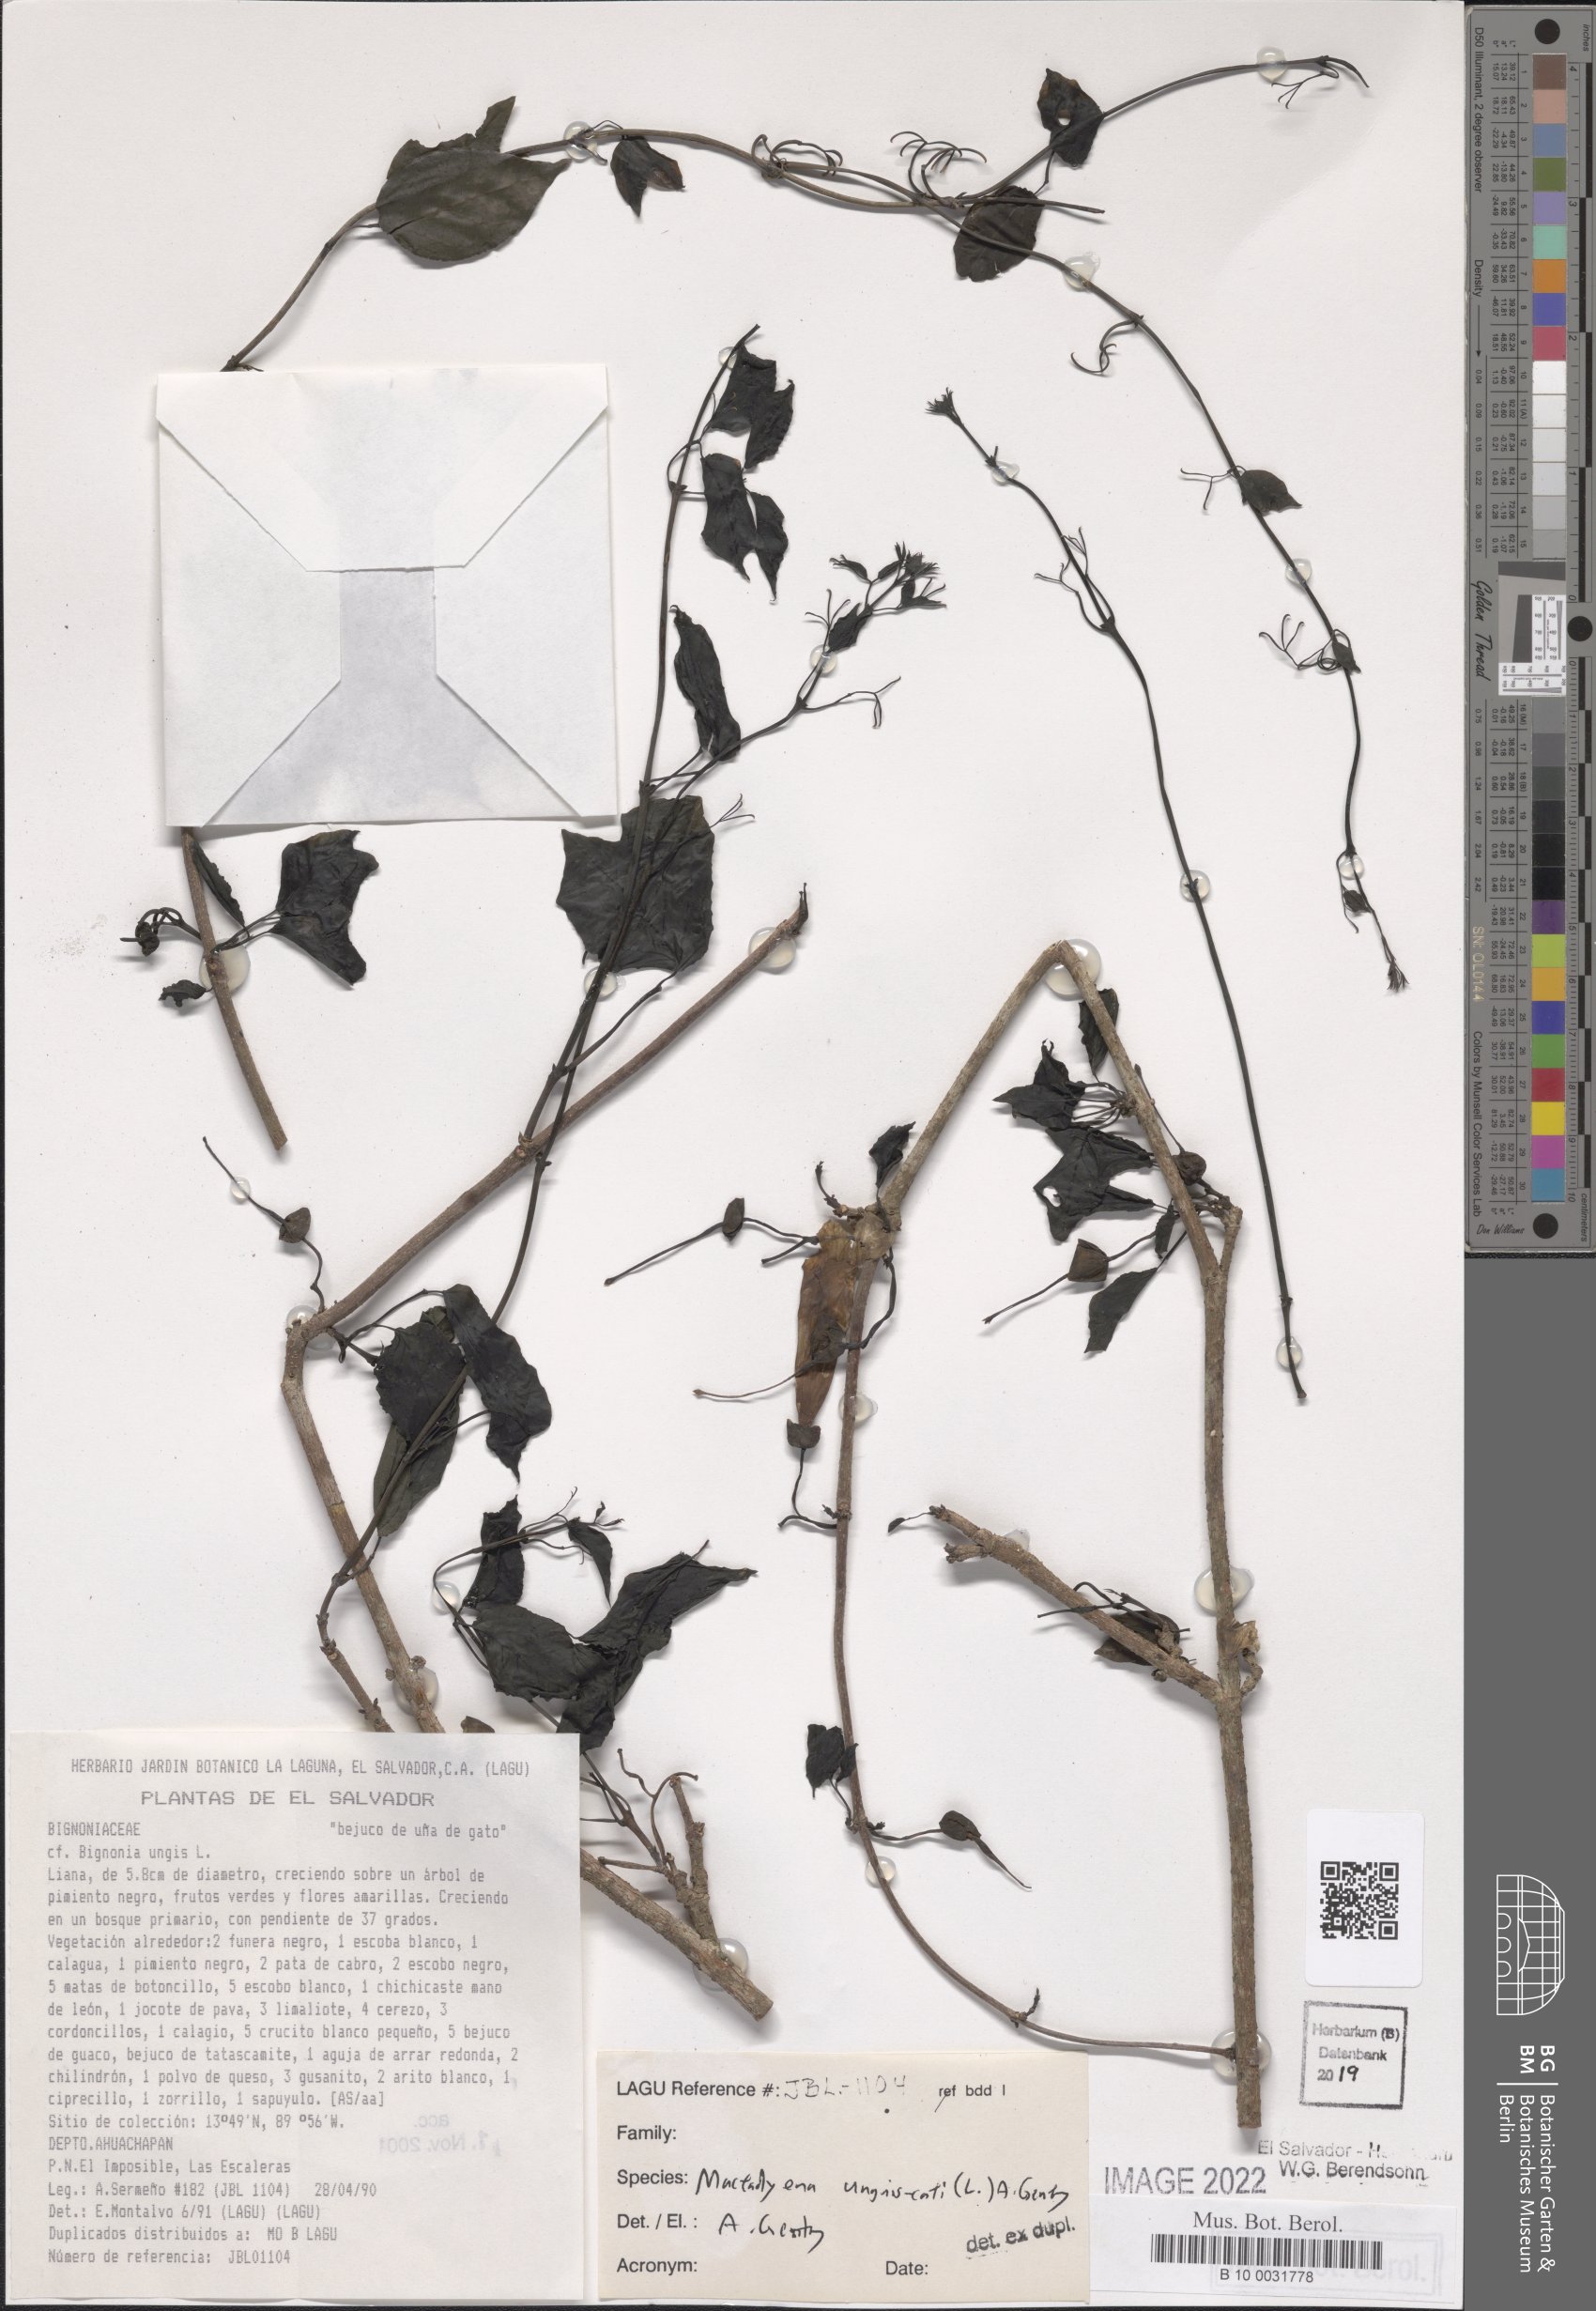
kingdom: Plantae
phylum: Tracheophyta
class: Magnoliopsida
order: Lamiales
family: Bignoniaceae
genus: Dolichandra
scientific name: Dolichandra unguis-cati
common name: Catclaw vine
